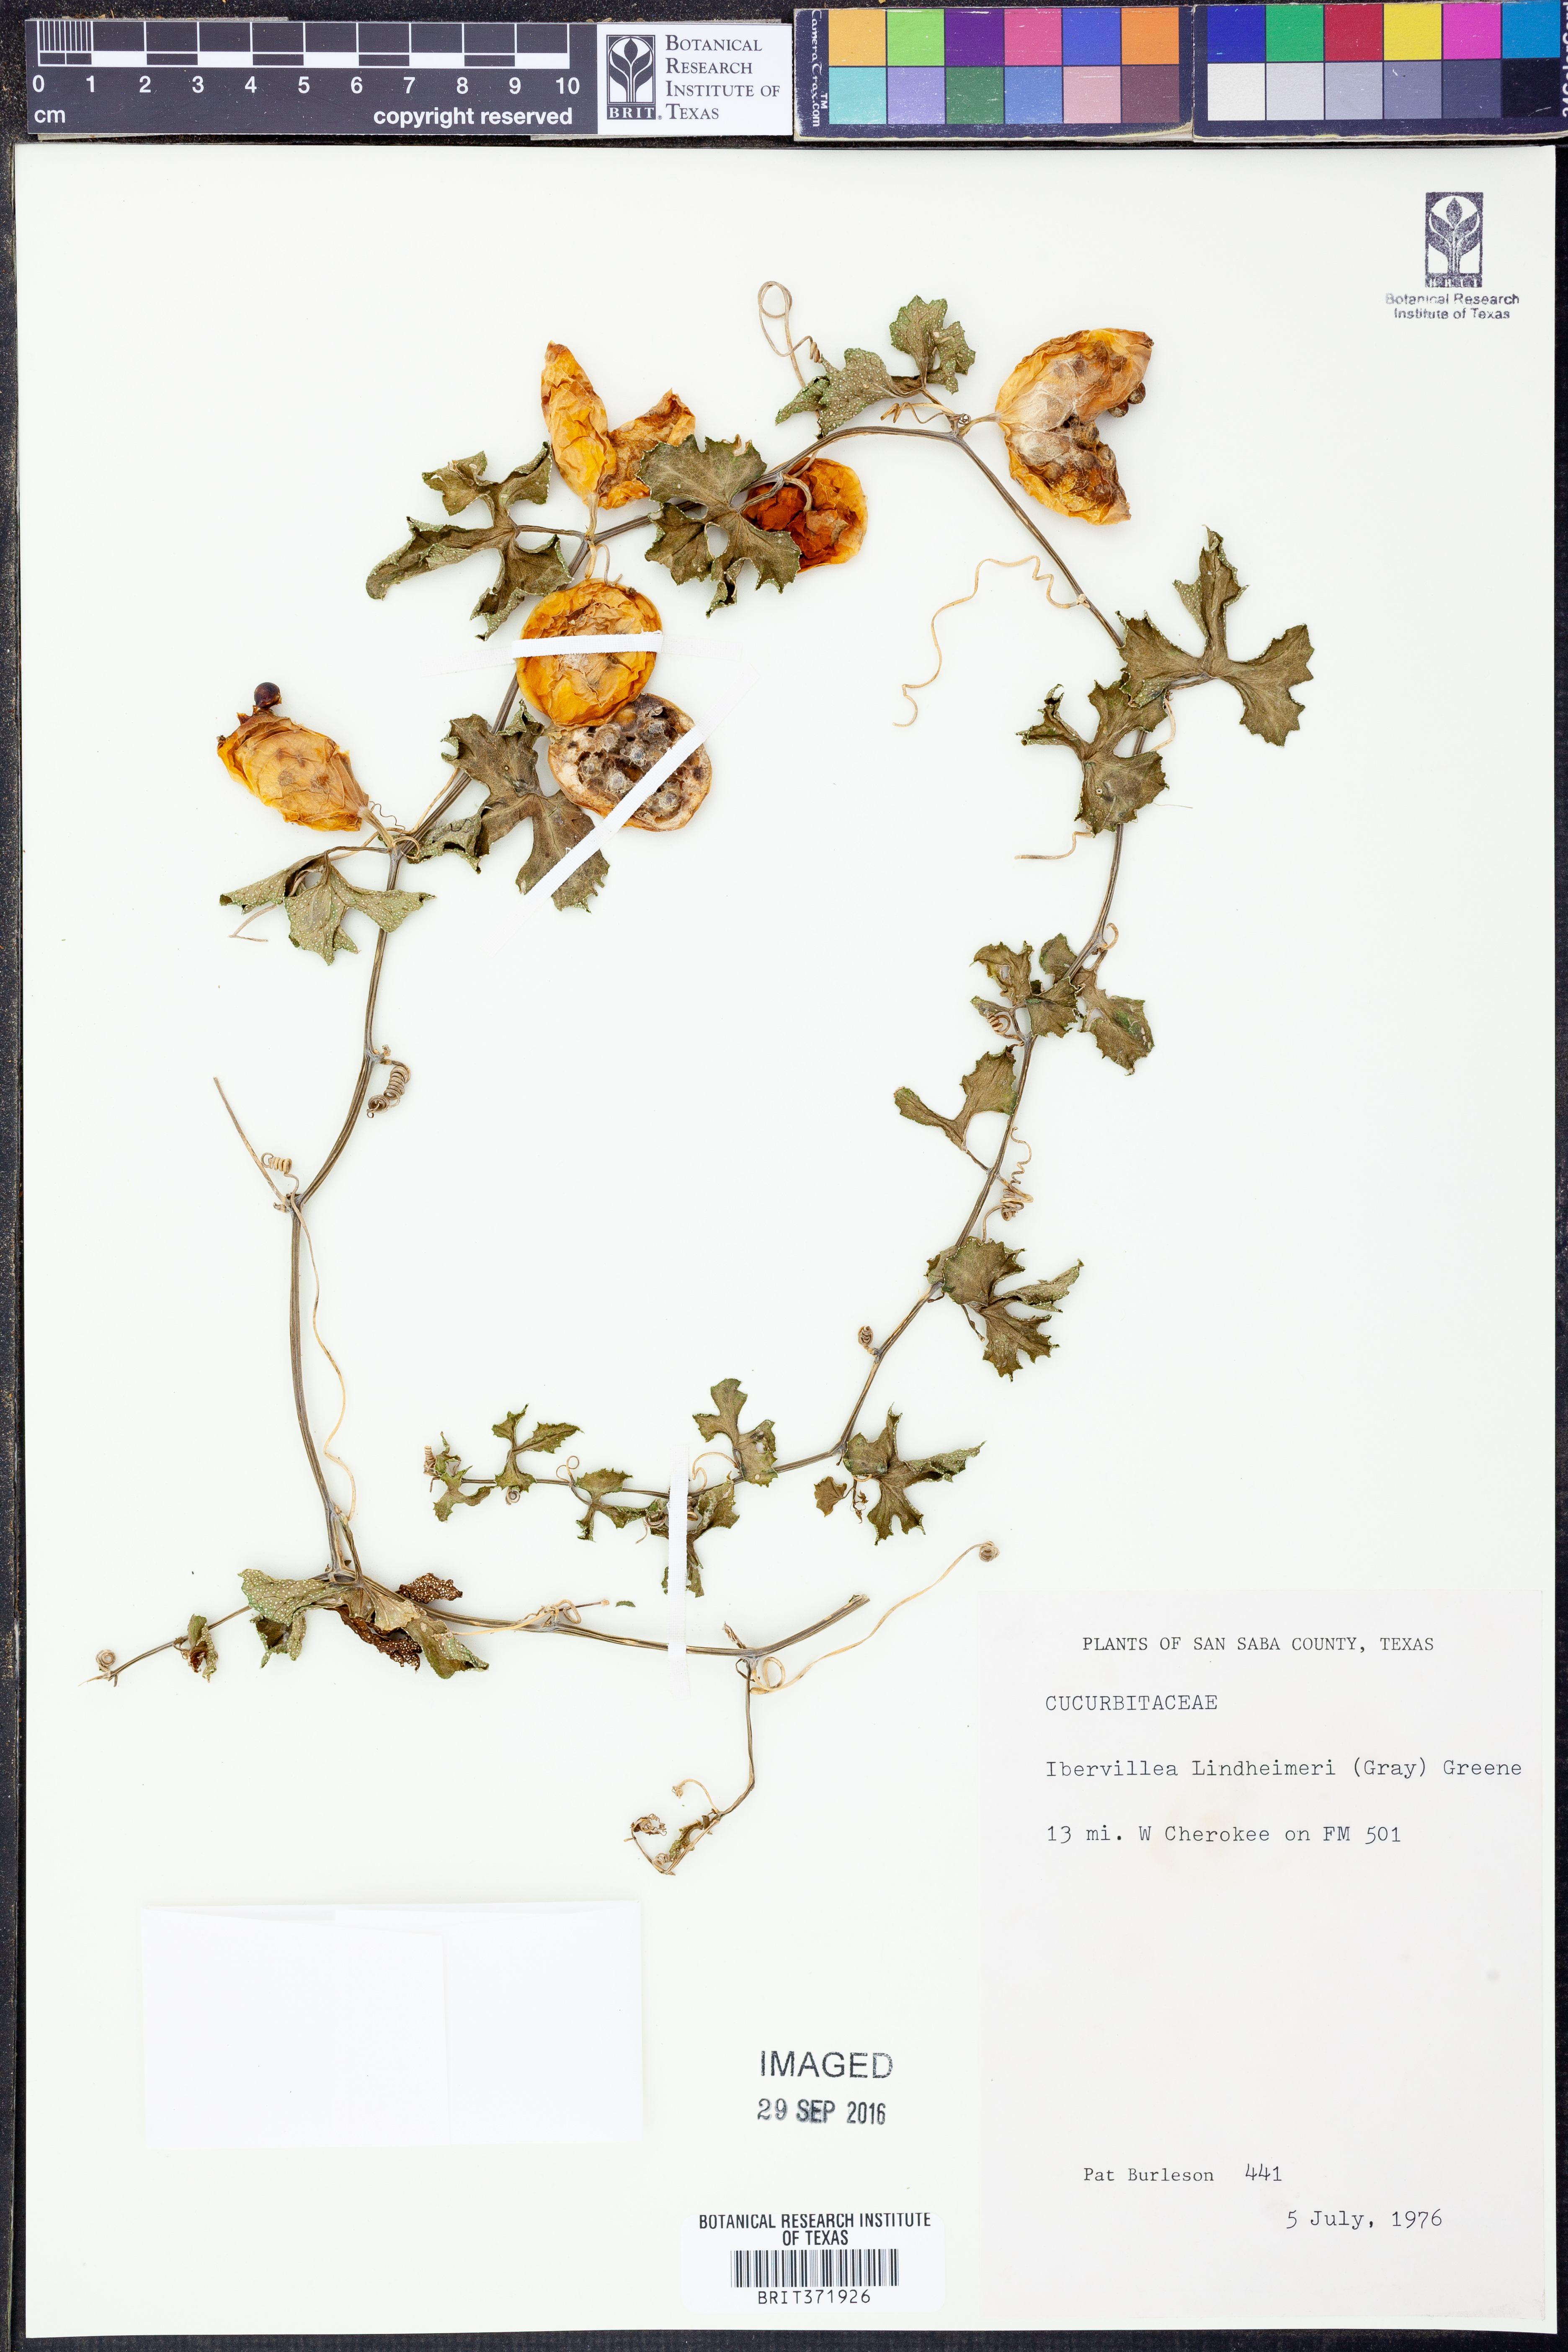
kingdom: Plantae
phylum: Tracheophyta
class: Magnoliopsida
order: Cucurbitales
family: Cucurbitaceae
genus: Ibervillea
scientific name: Ibervillea lindheimeri
